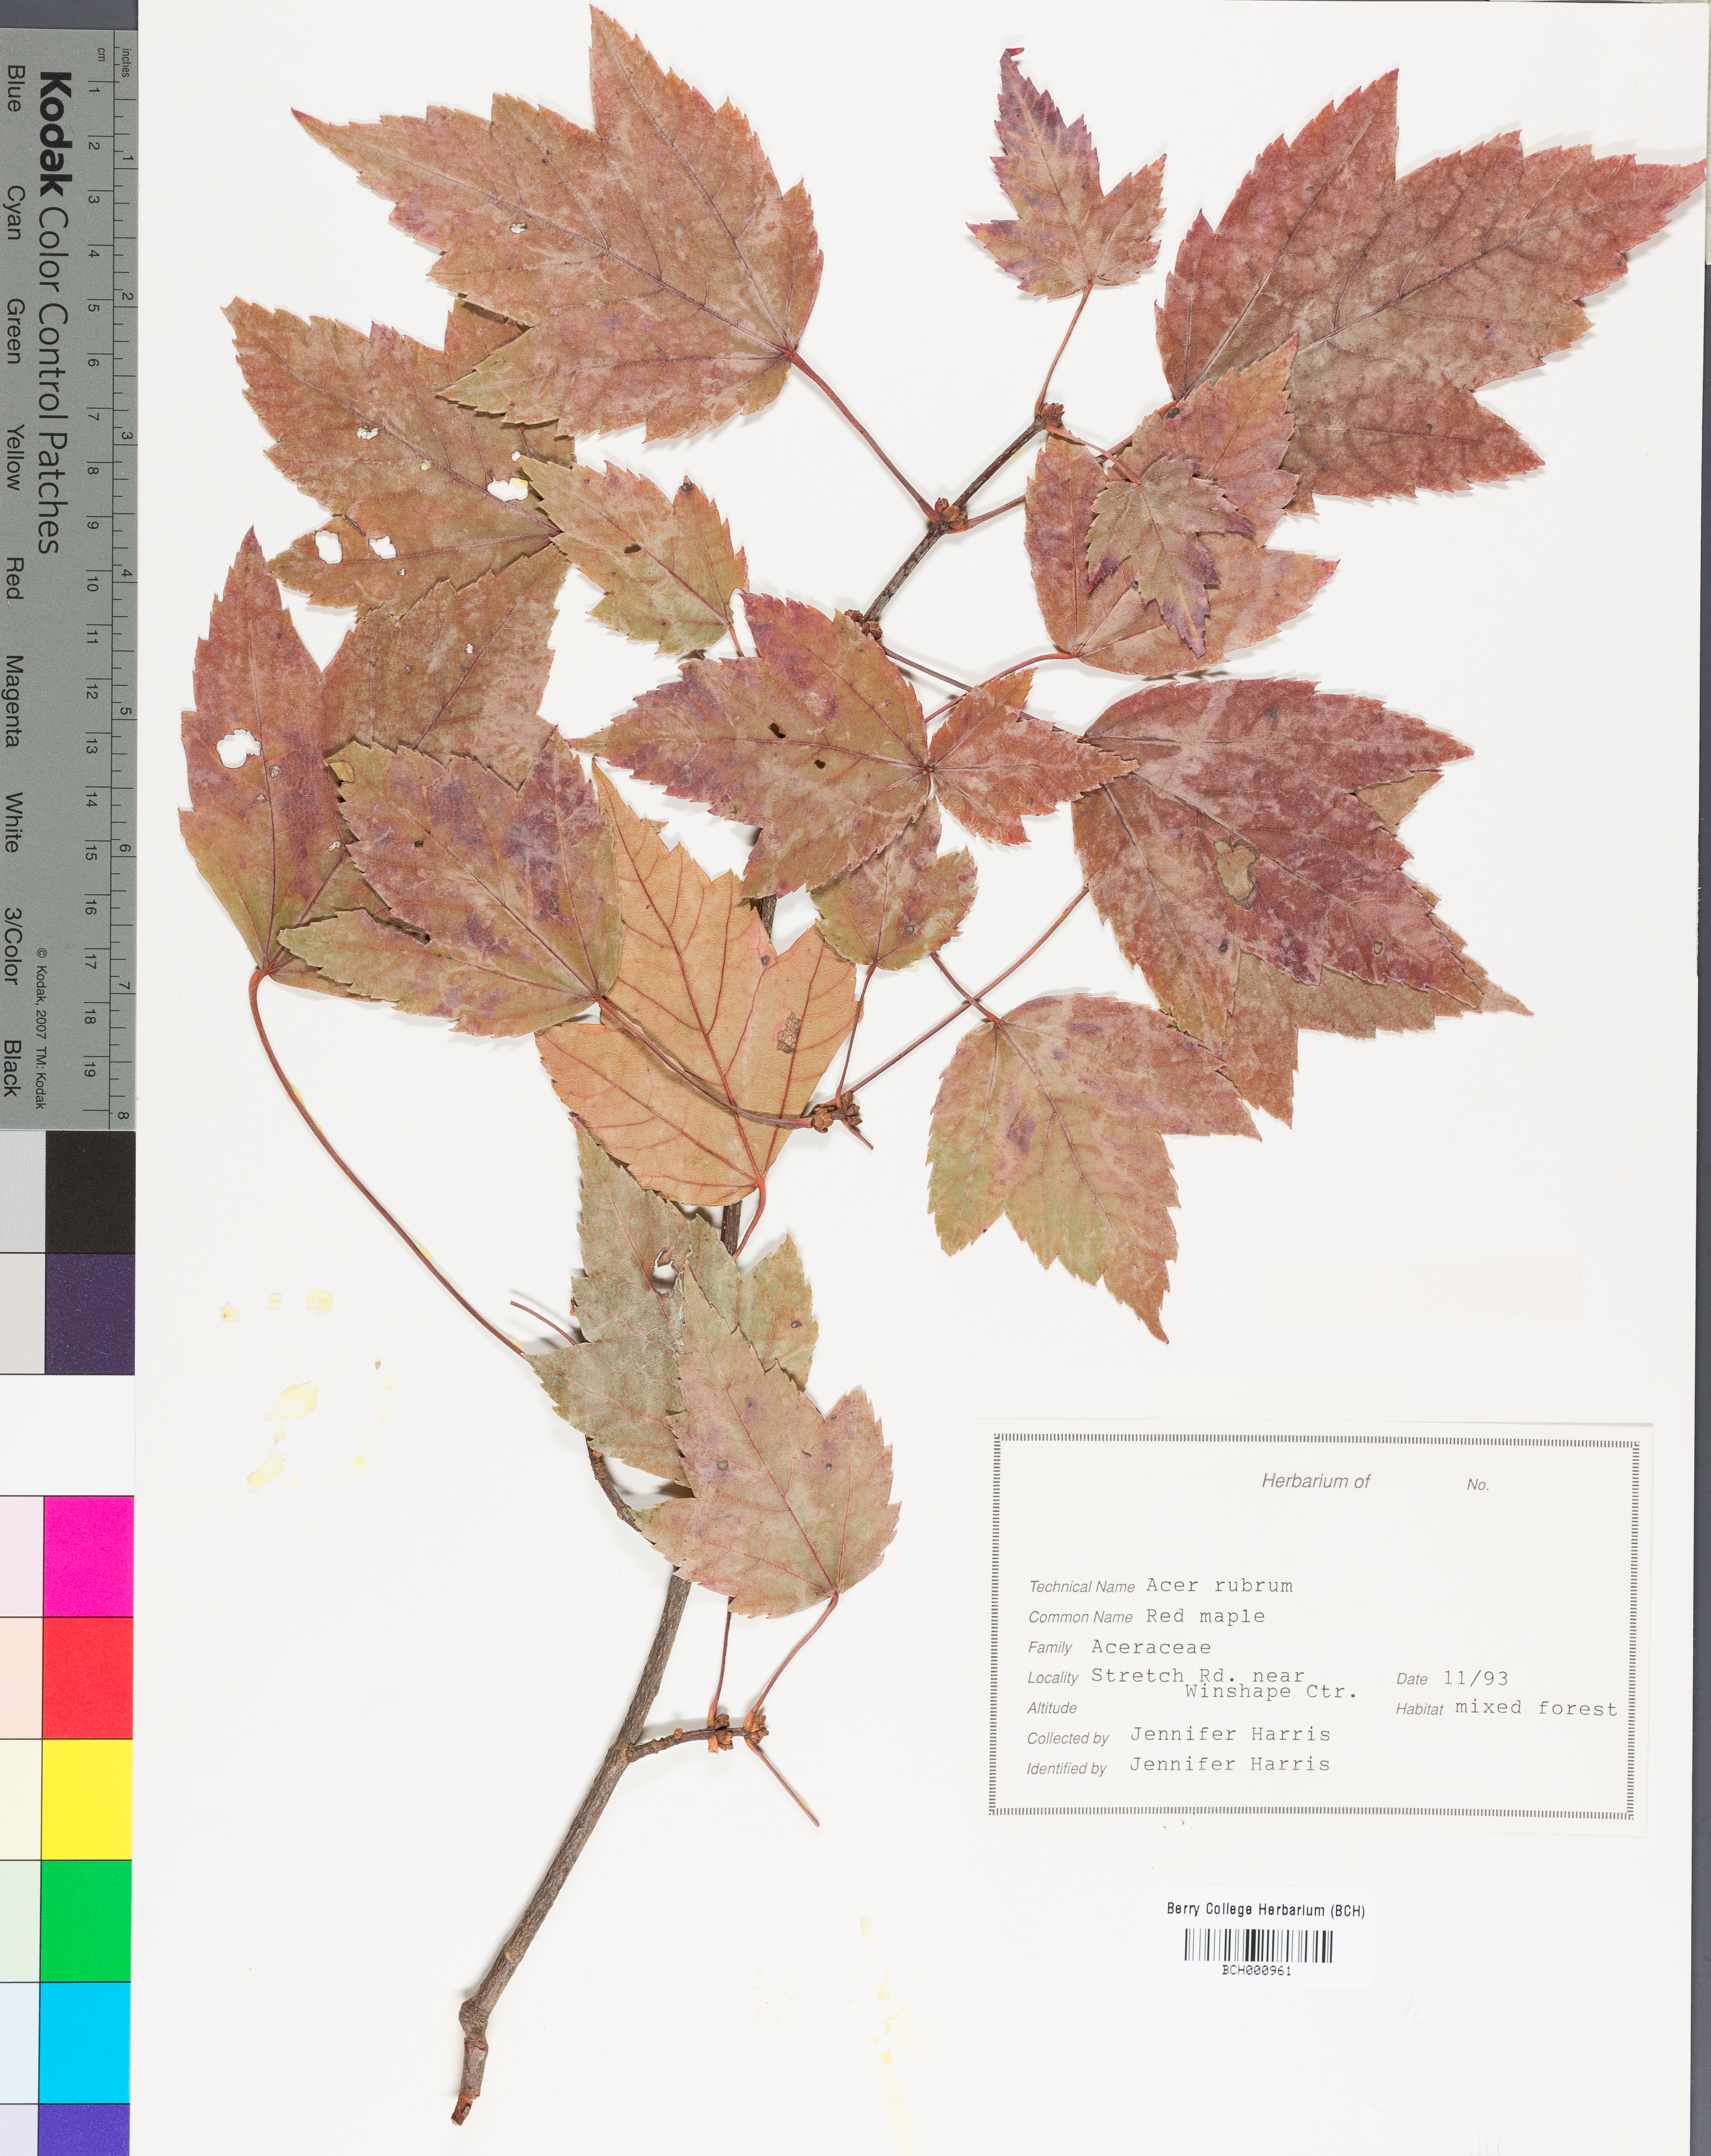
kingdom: Plantae
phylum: Tracheophyta
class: Magnoliopsida
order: Sapindales
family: Sapindaceae
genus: Acer
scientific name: Acer rubrum
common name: Red maple
